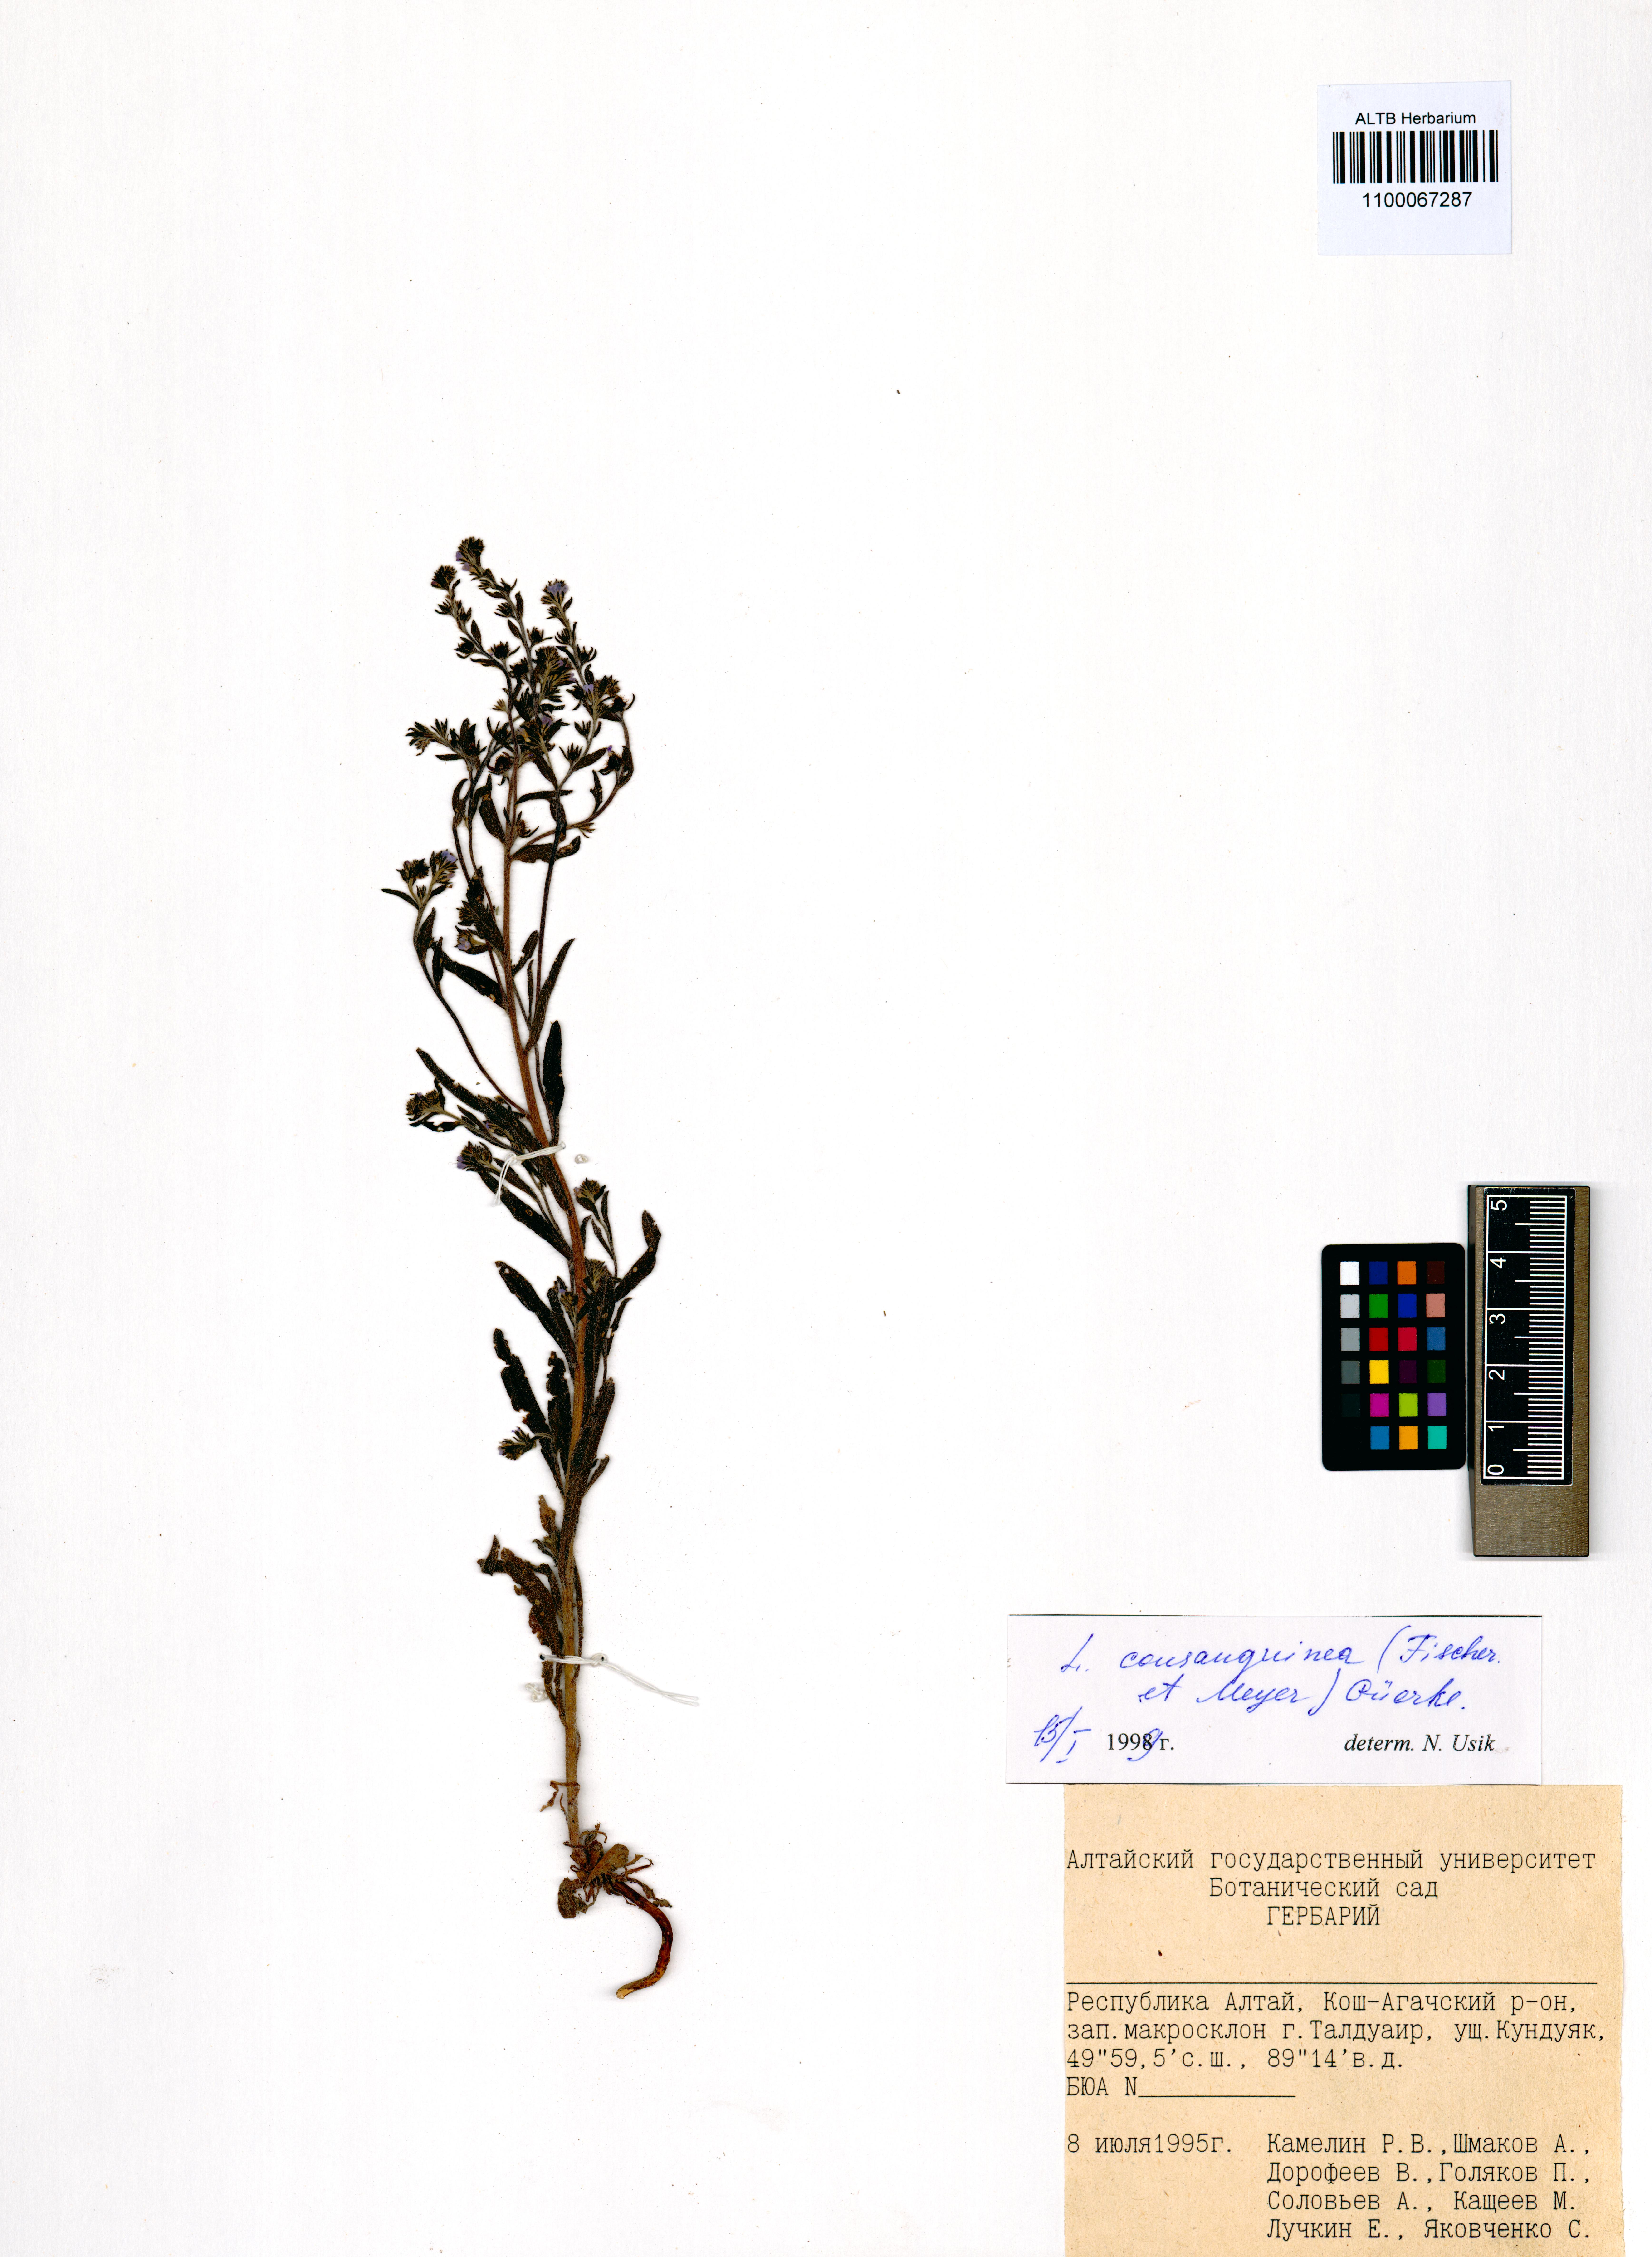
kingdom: Plantae
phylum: Tracheophyta
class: Magnoliopsida
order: Boraginales
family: Boraginaceae
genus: Lappula
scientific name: Lappula squarrosa
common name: European stickseed
